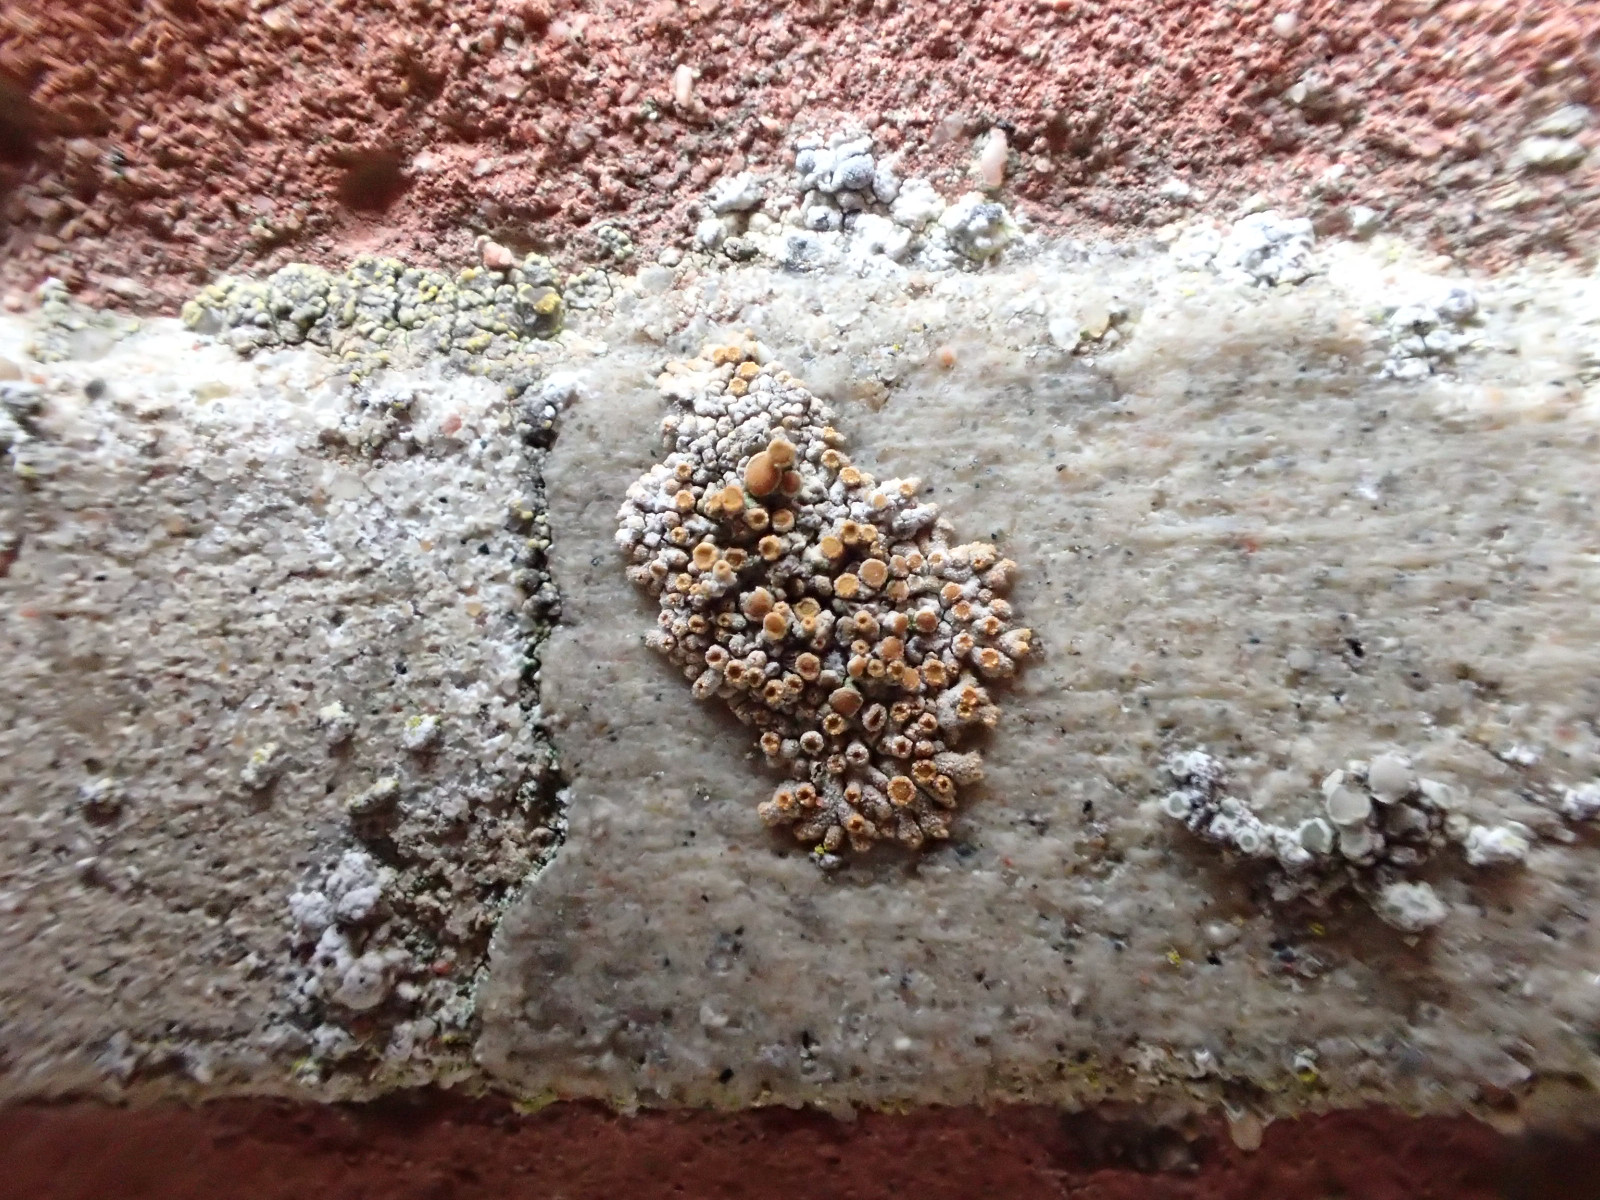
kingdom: Fungi
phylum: Ascomycota
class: Lecanoromycetes
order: Teloschistales
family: Teloschistaceae
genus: Calogaya
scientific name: Calogaya pusilla
